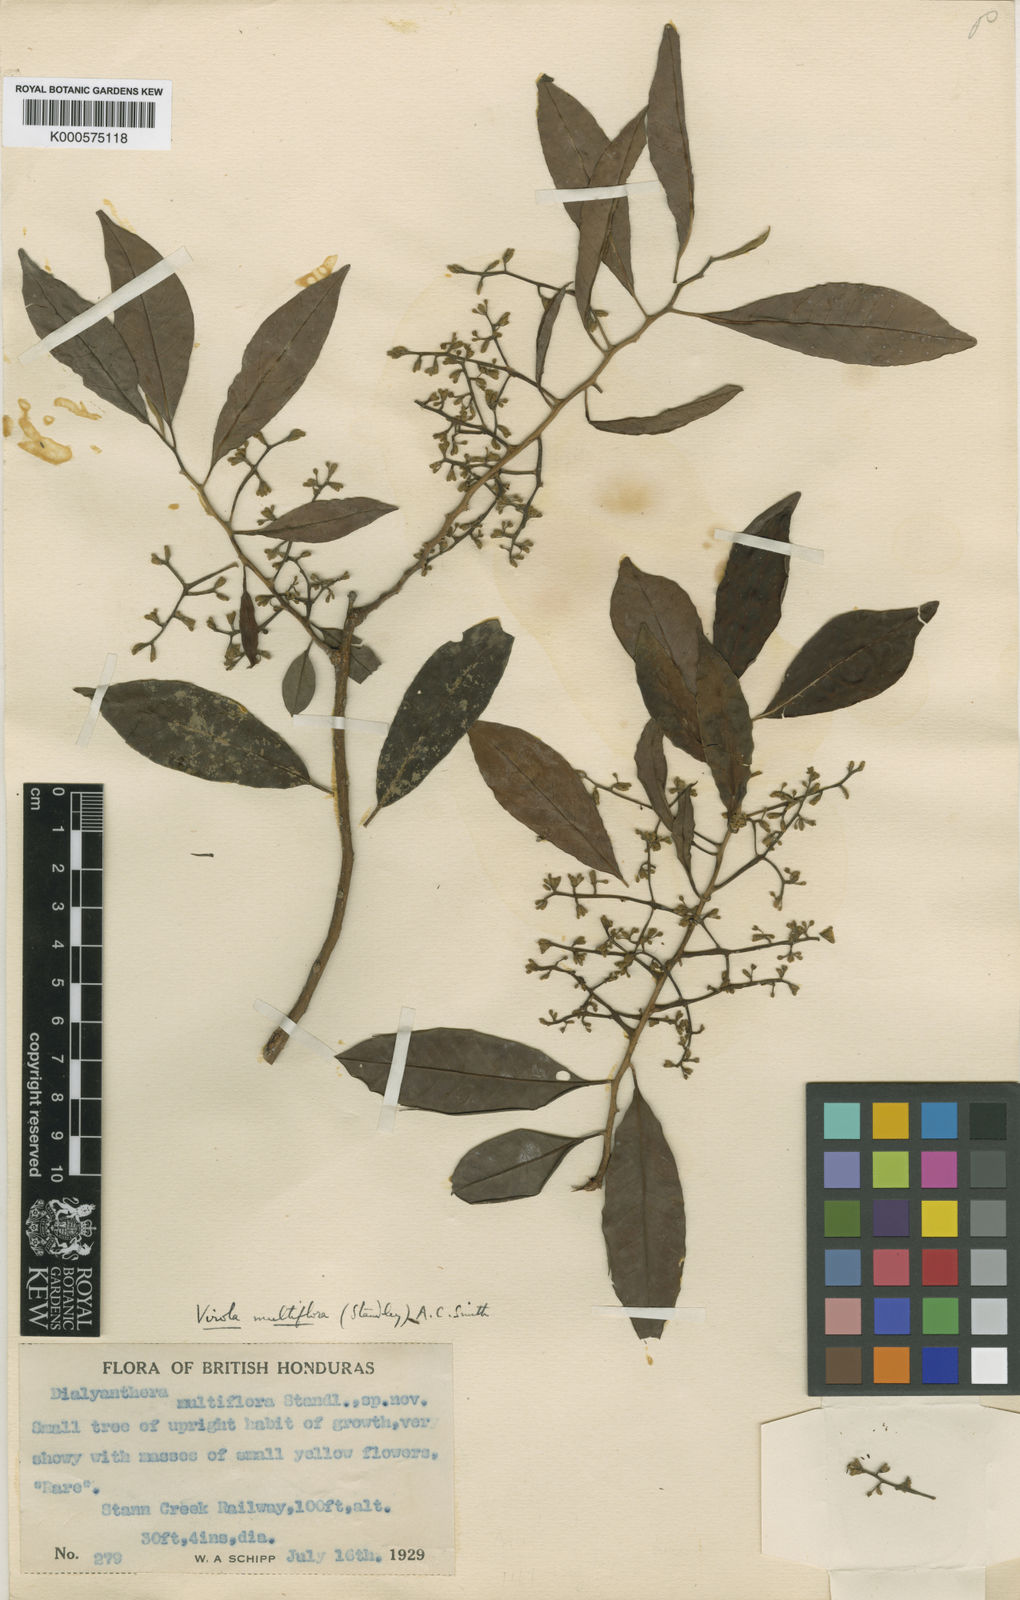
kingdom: Plantae
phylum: Tracheophyta
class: Magnoliopsida
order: Magnoliales
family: Myristicaceae
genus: Virola
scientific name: Virola multiflora
